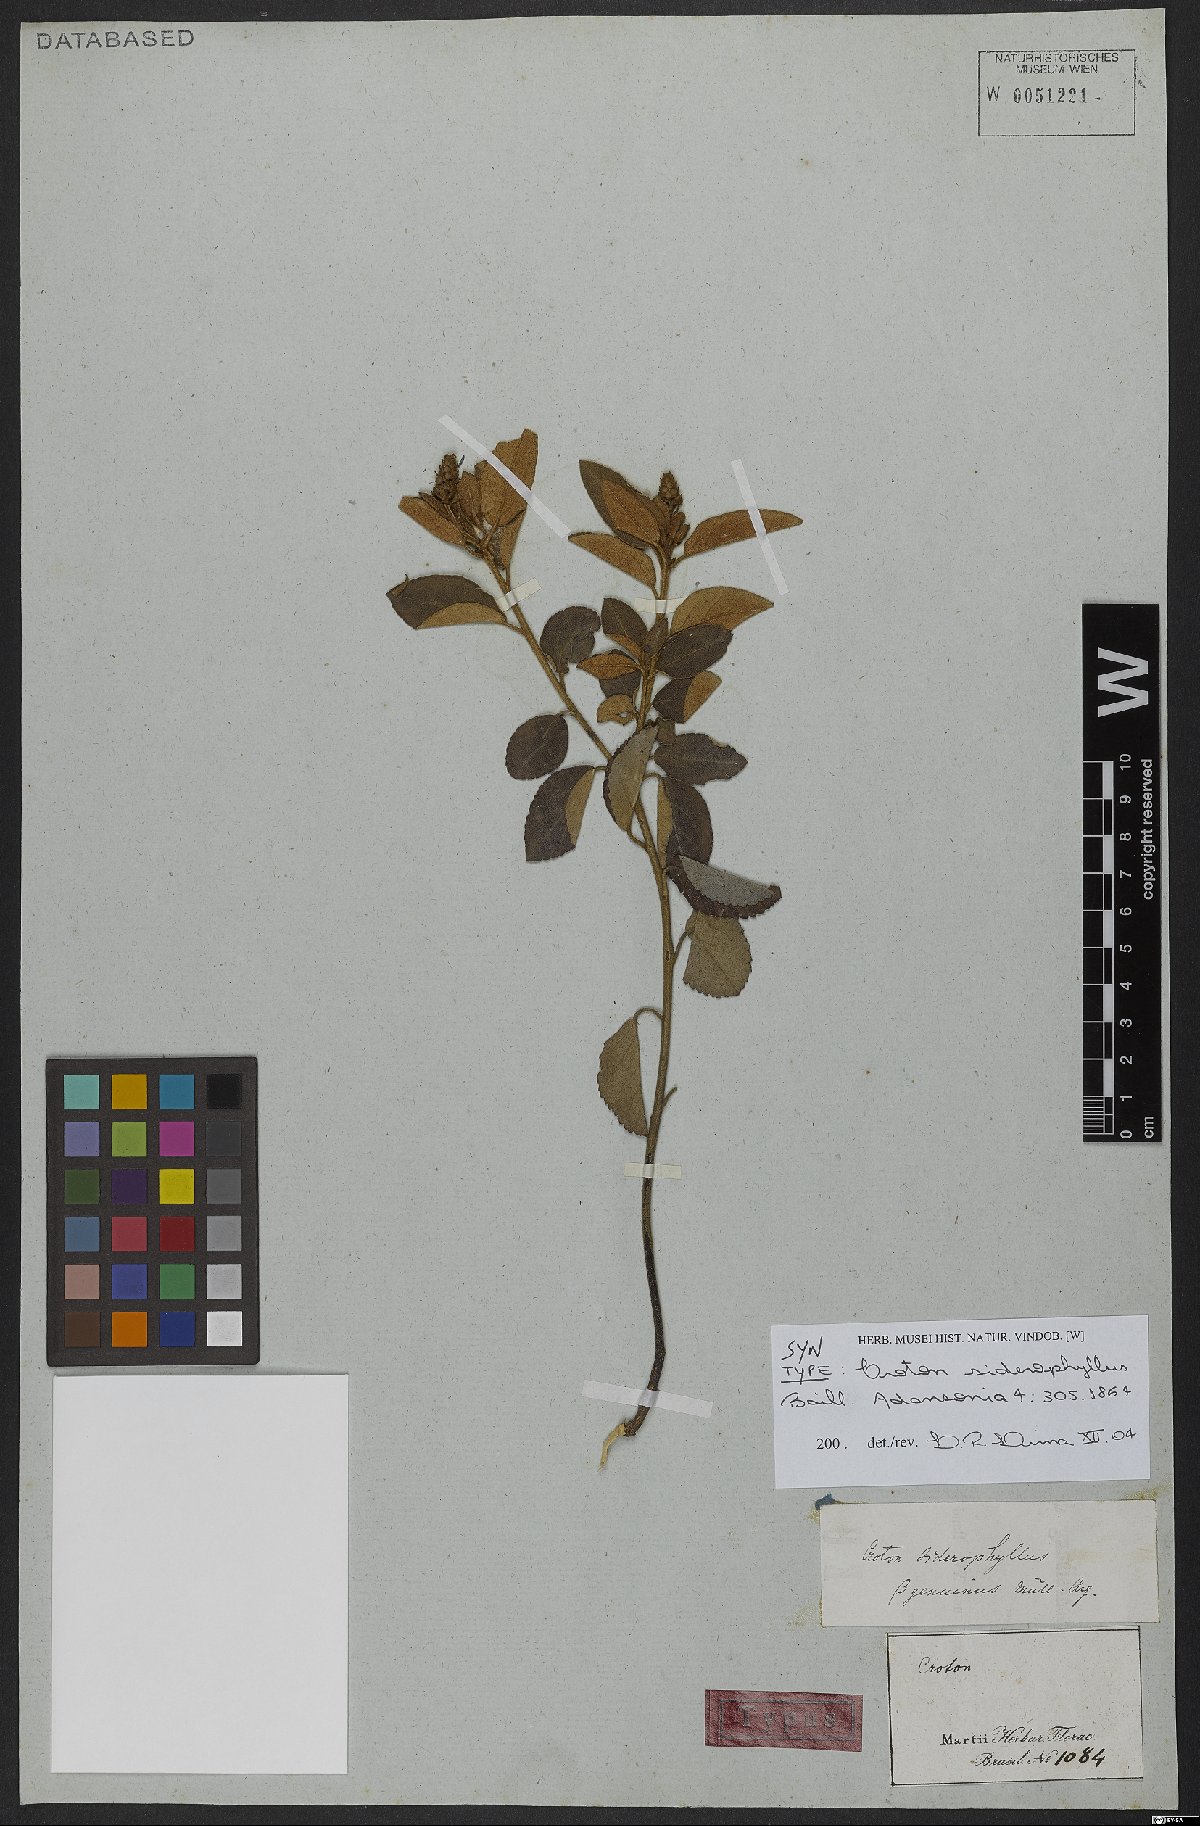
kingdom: Plantae
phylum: Tracheophyta
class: Magnoliopsida
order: Malpighiales
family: Euphorbiaceae
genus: Croton
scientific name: Croton siderophyllus
